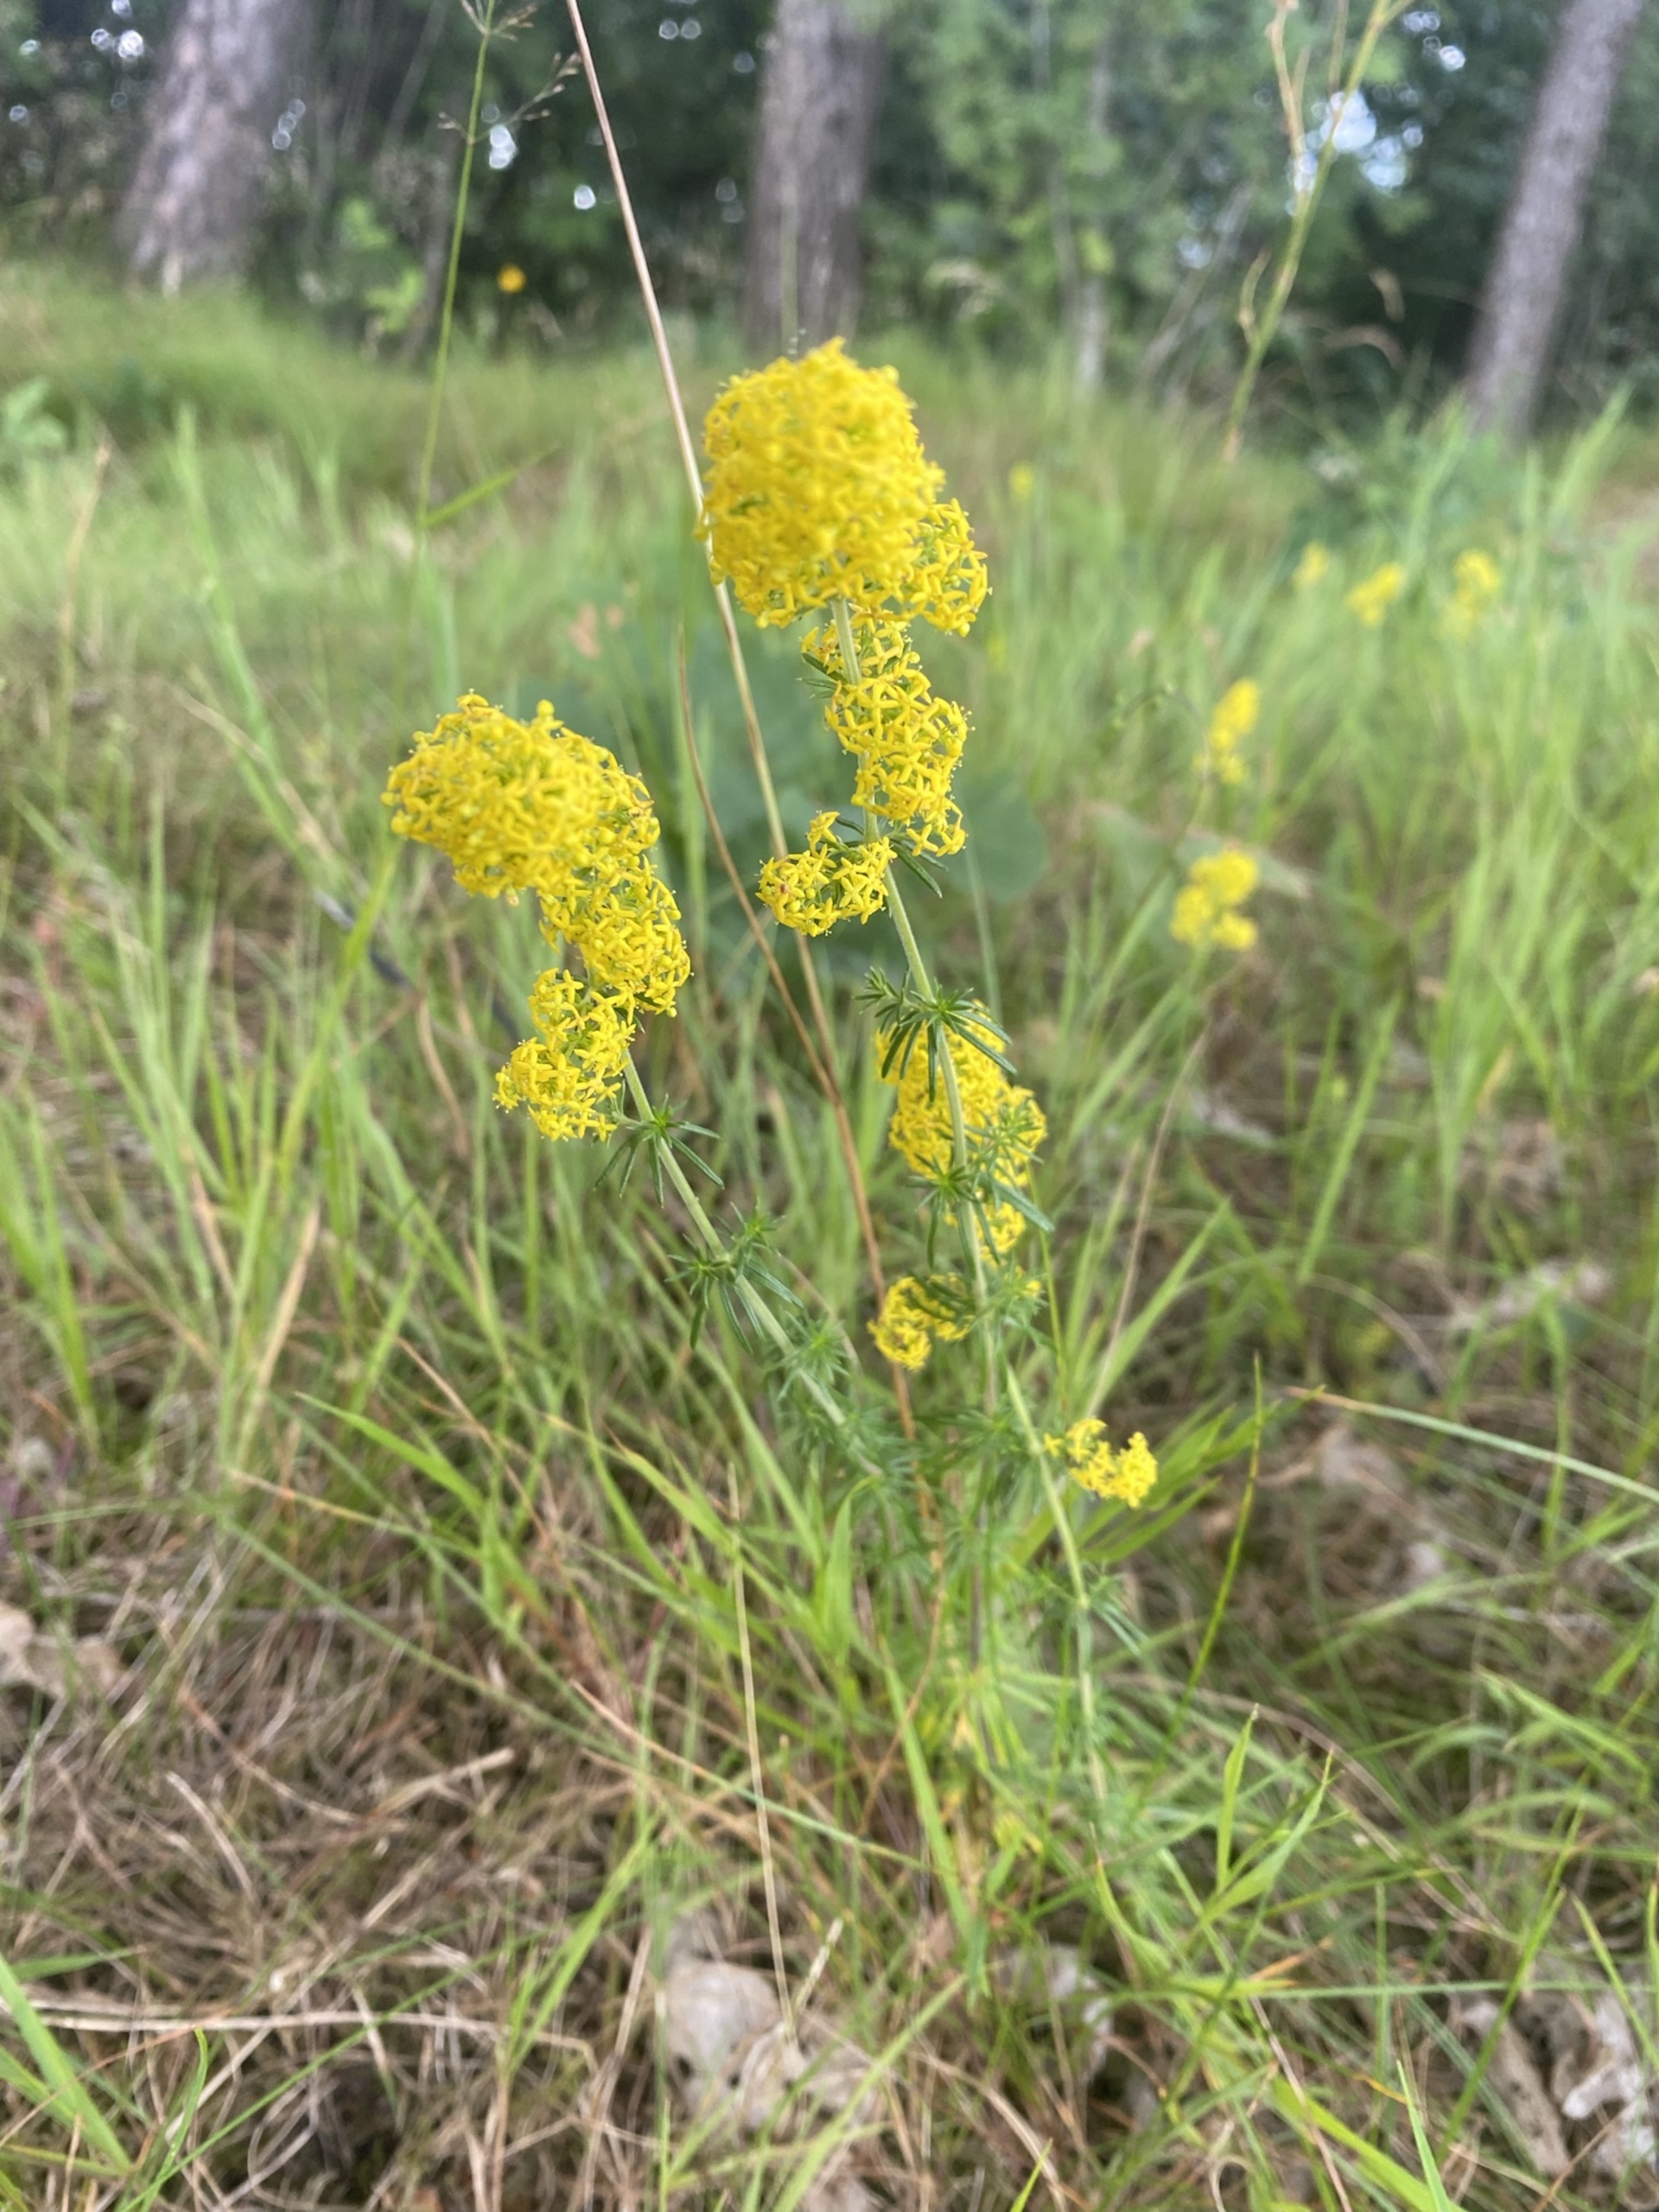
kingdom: Plantae
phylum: Tracheophyta
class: Magnoliopsida
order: Gentianales
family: Rubiaceae
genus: Galium
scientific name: Galium verum
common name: Gul snerre
